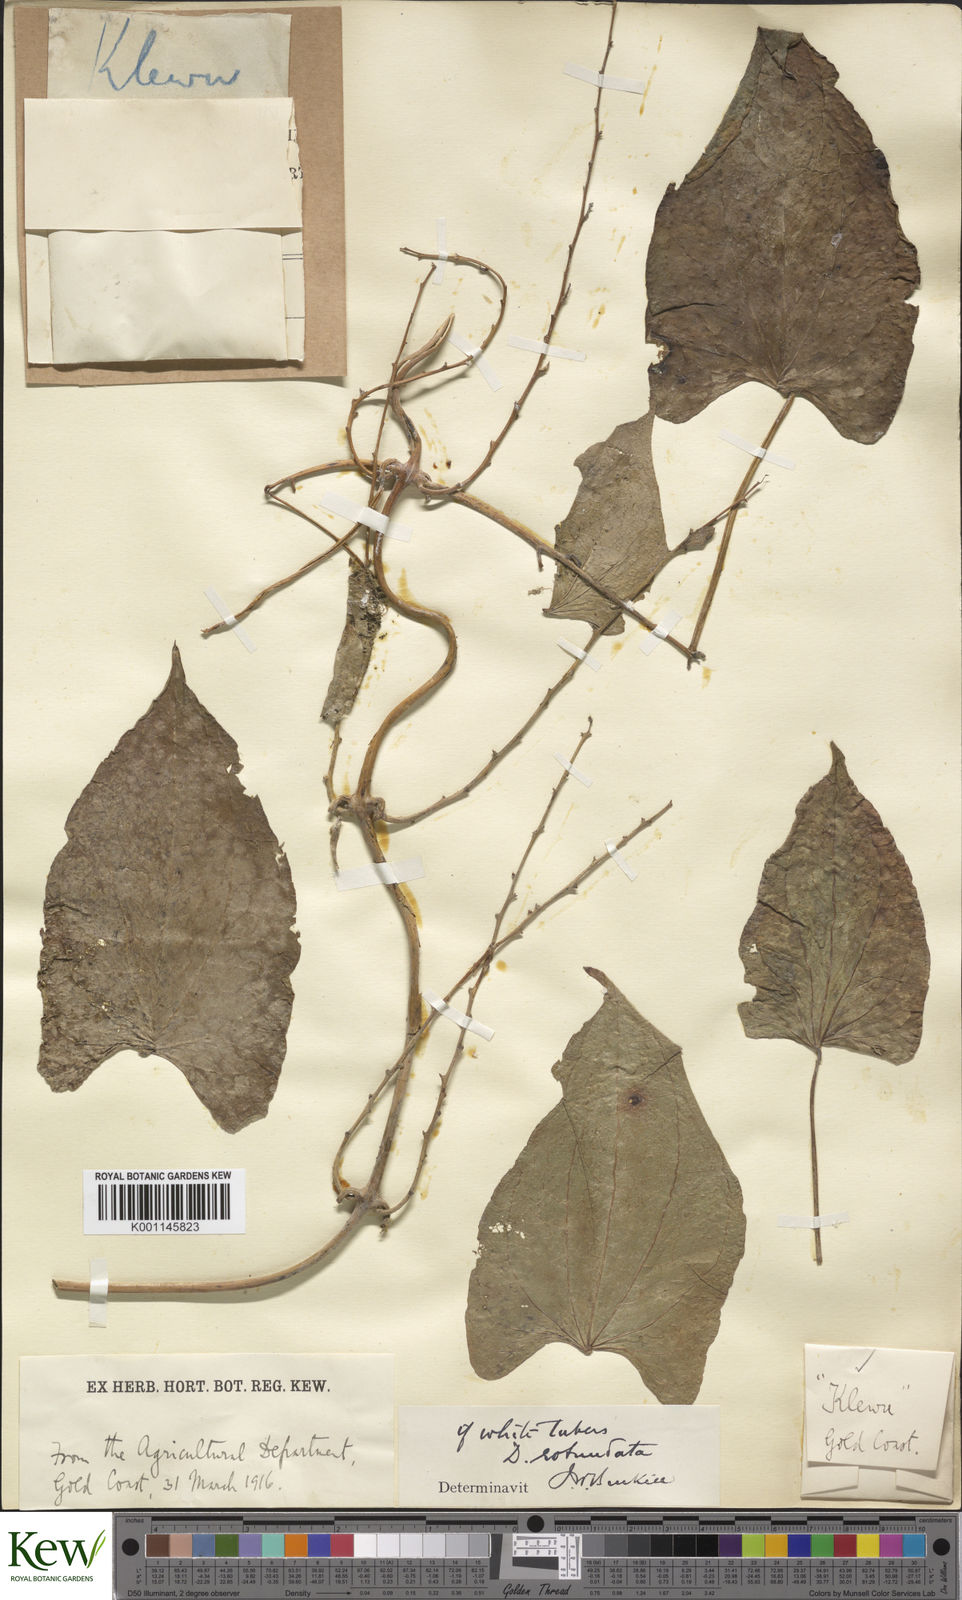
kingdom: Plantae
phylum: Tracheophyta
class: Liliopsida
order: Dioscoreales
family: Dioscoreaceae
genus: Dioscorea
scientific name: Dioscorea cayenensis
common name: Attoto yam
